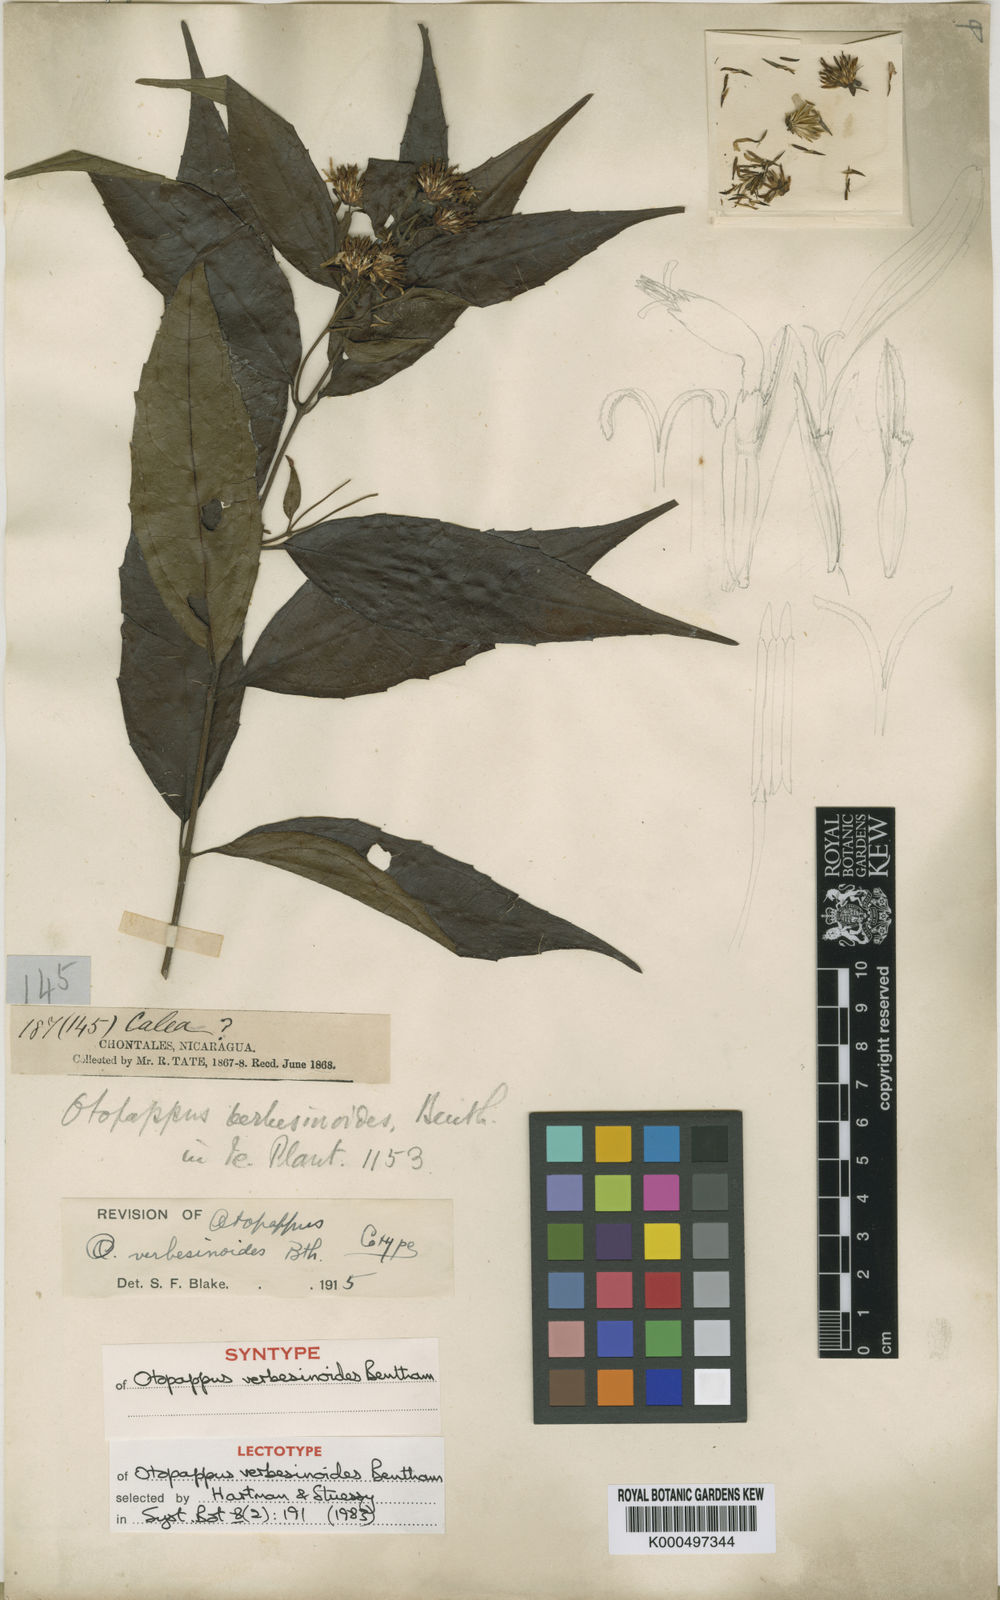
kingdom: Plantae
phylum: Tracheophyta
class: Magnoliopsida
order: Asterales
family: Asteraceae
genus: Otopappus
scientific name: Otopappus verbesinoides
